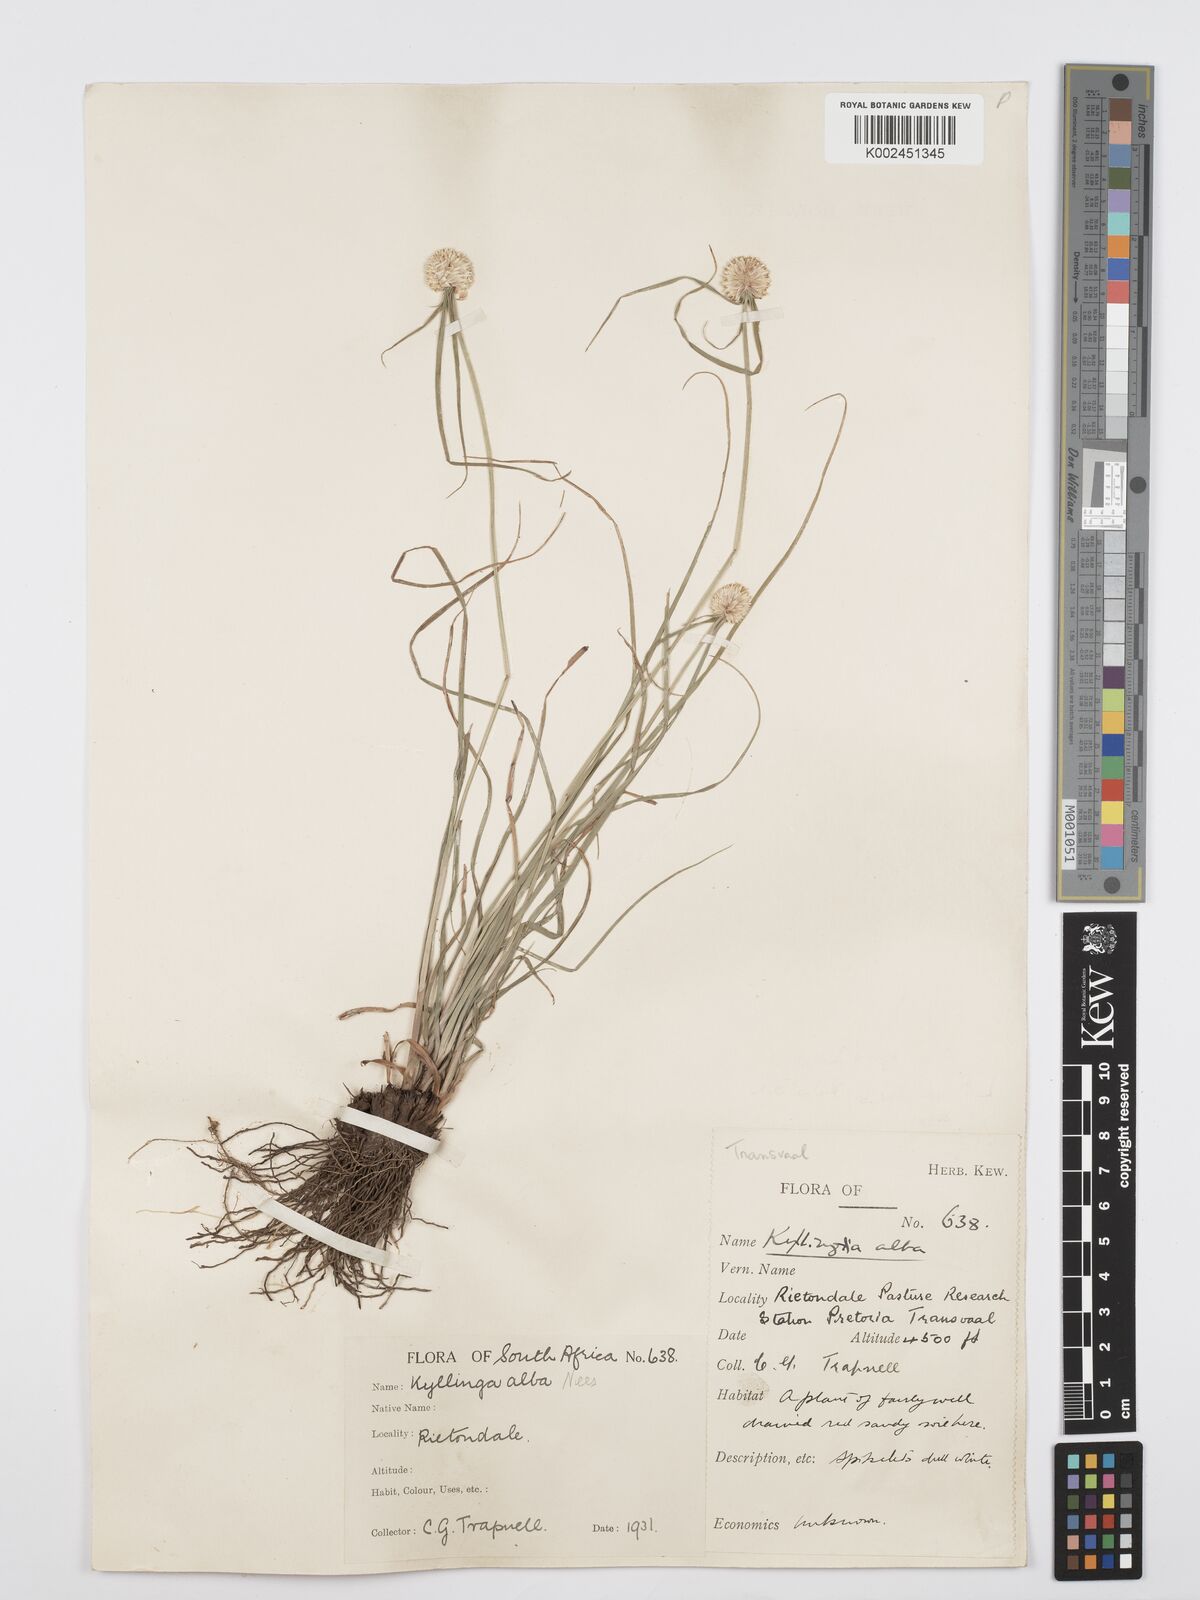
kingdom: Plantae
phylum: Tracheophyta
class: Liliopsida
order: Poales
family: Cyperaceae
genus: Cyperus
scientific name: Cyperus
